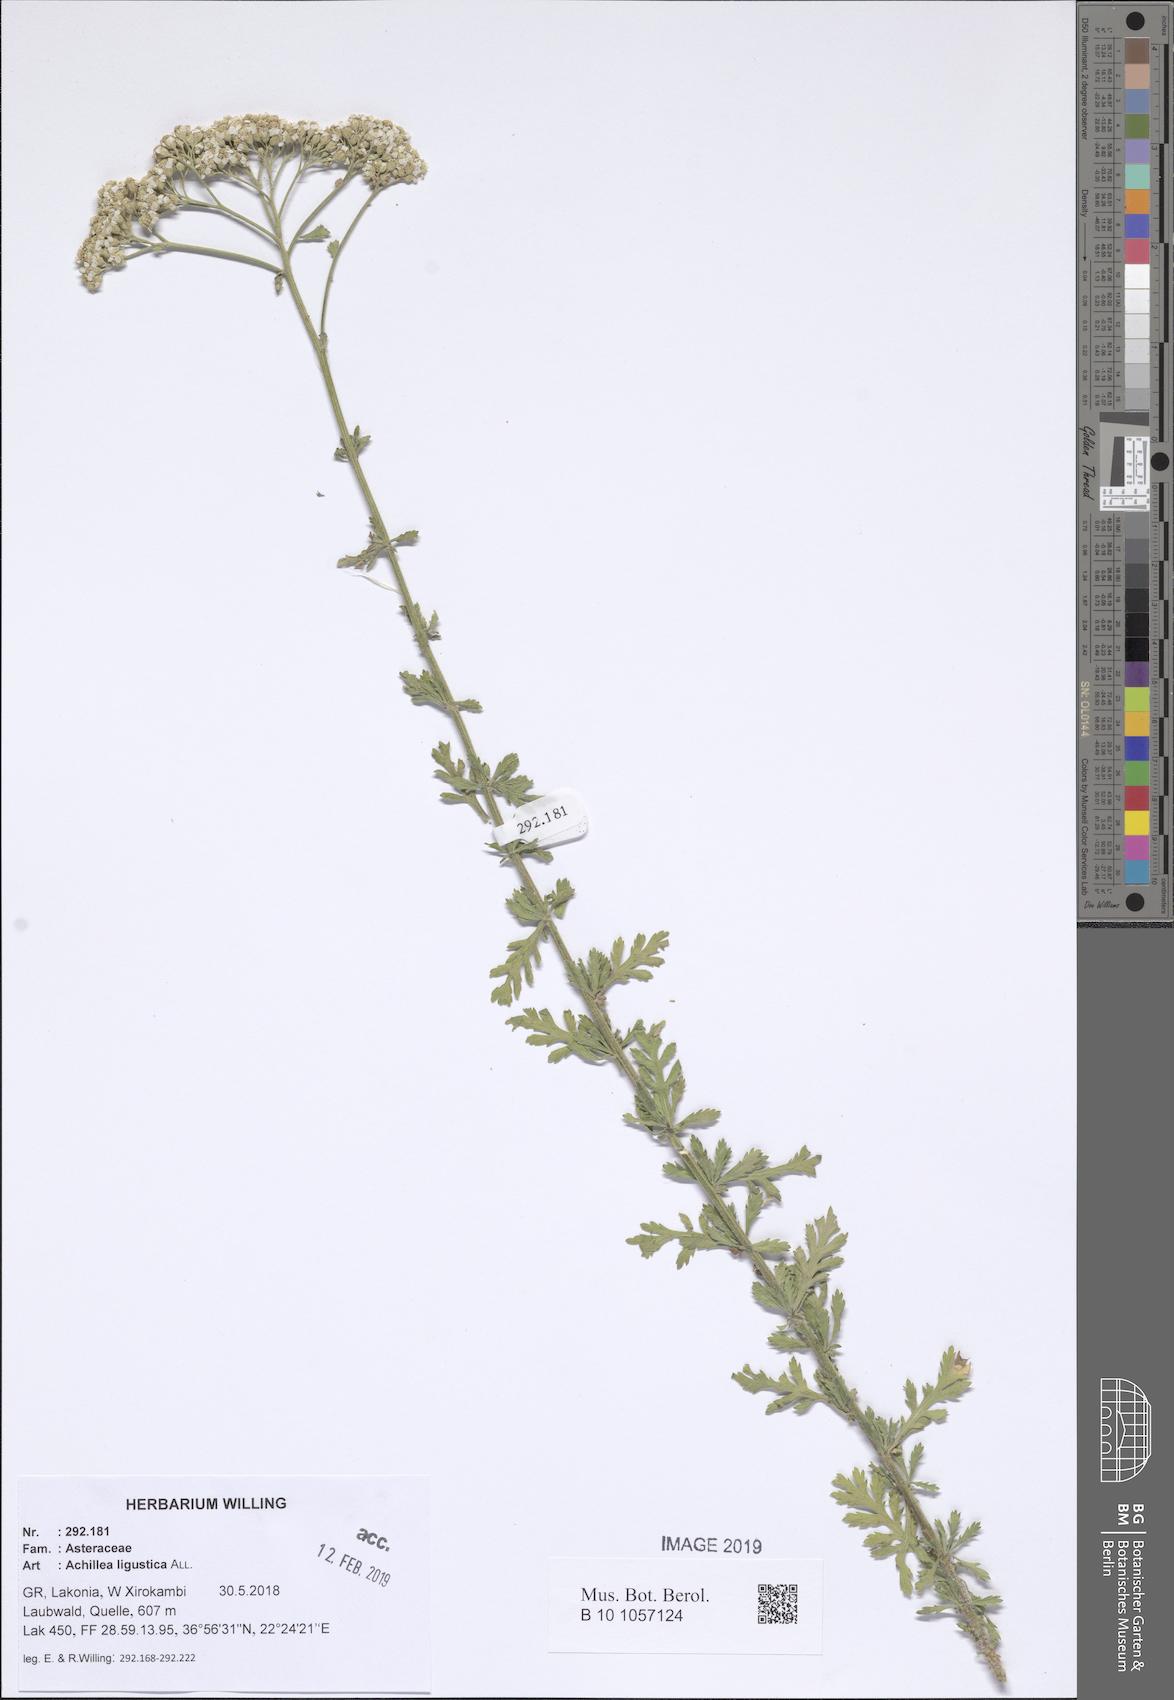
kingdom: Plantae
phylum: Tracheophyta
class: Magnoliopsida
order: Asterales
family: Asteraceae
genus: Achillea
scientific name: Achillea ligustica
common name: Southern yarrow
